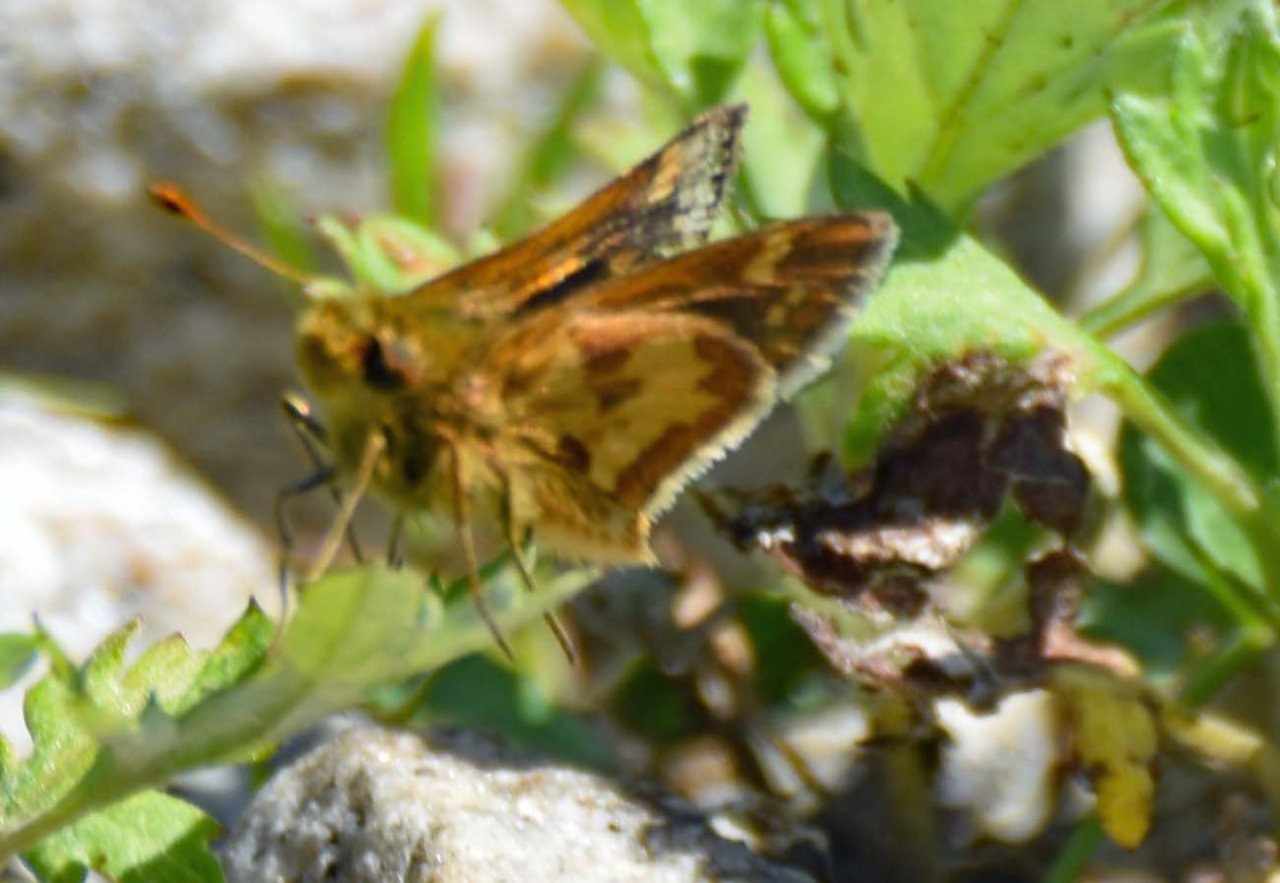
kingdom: Animalia
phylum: Arthropoda
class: Insecta
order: Lepidoptera
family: Hesperiidae
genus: Polites
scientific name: Polites coras
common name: Peck's Skipper
